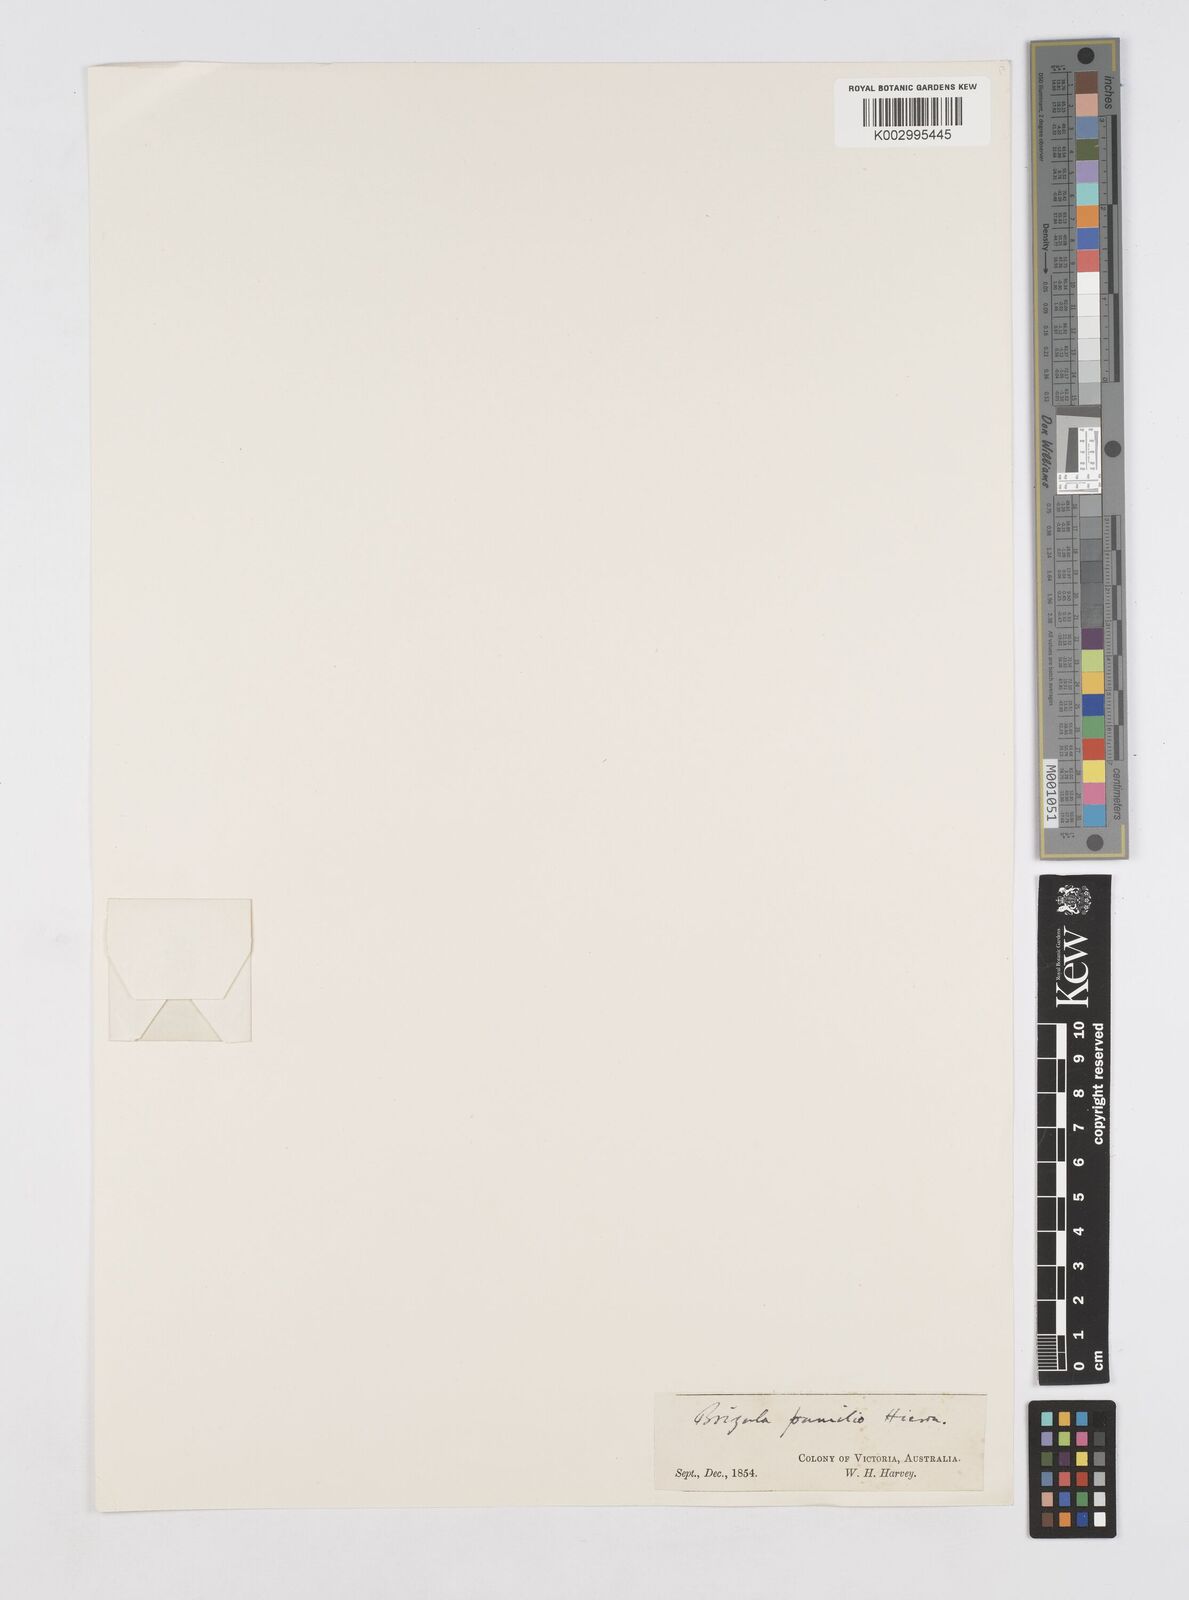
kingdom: Plantae
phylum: Tracheophyta
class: Liliopsida
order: Poales
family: Restionaceae
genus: Aphelia
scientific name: Aphelia pumilio
